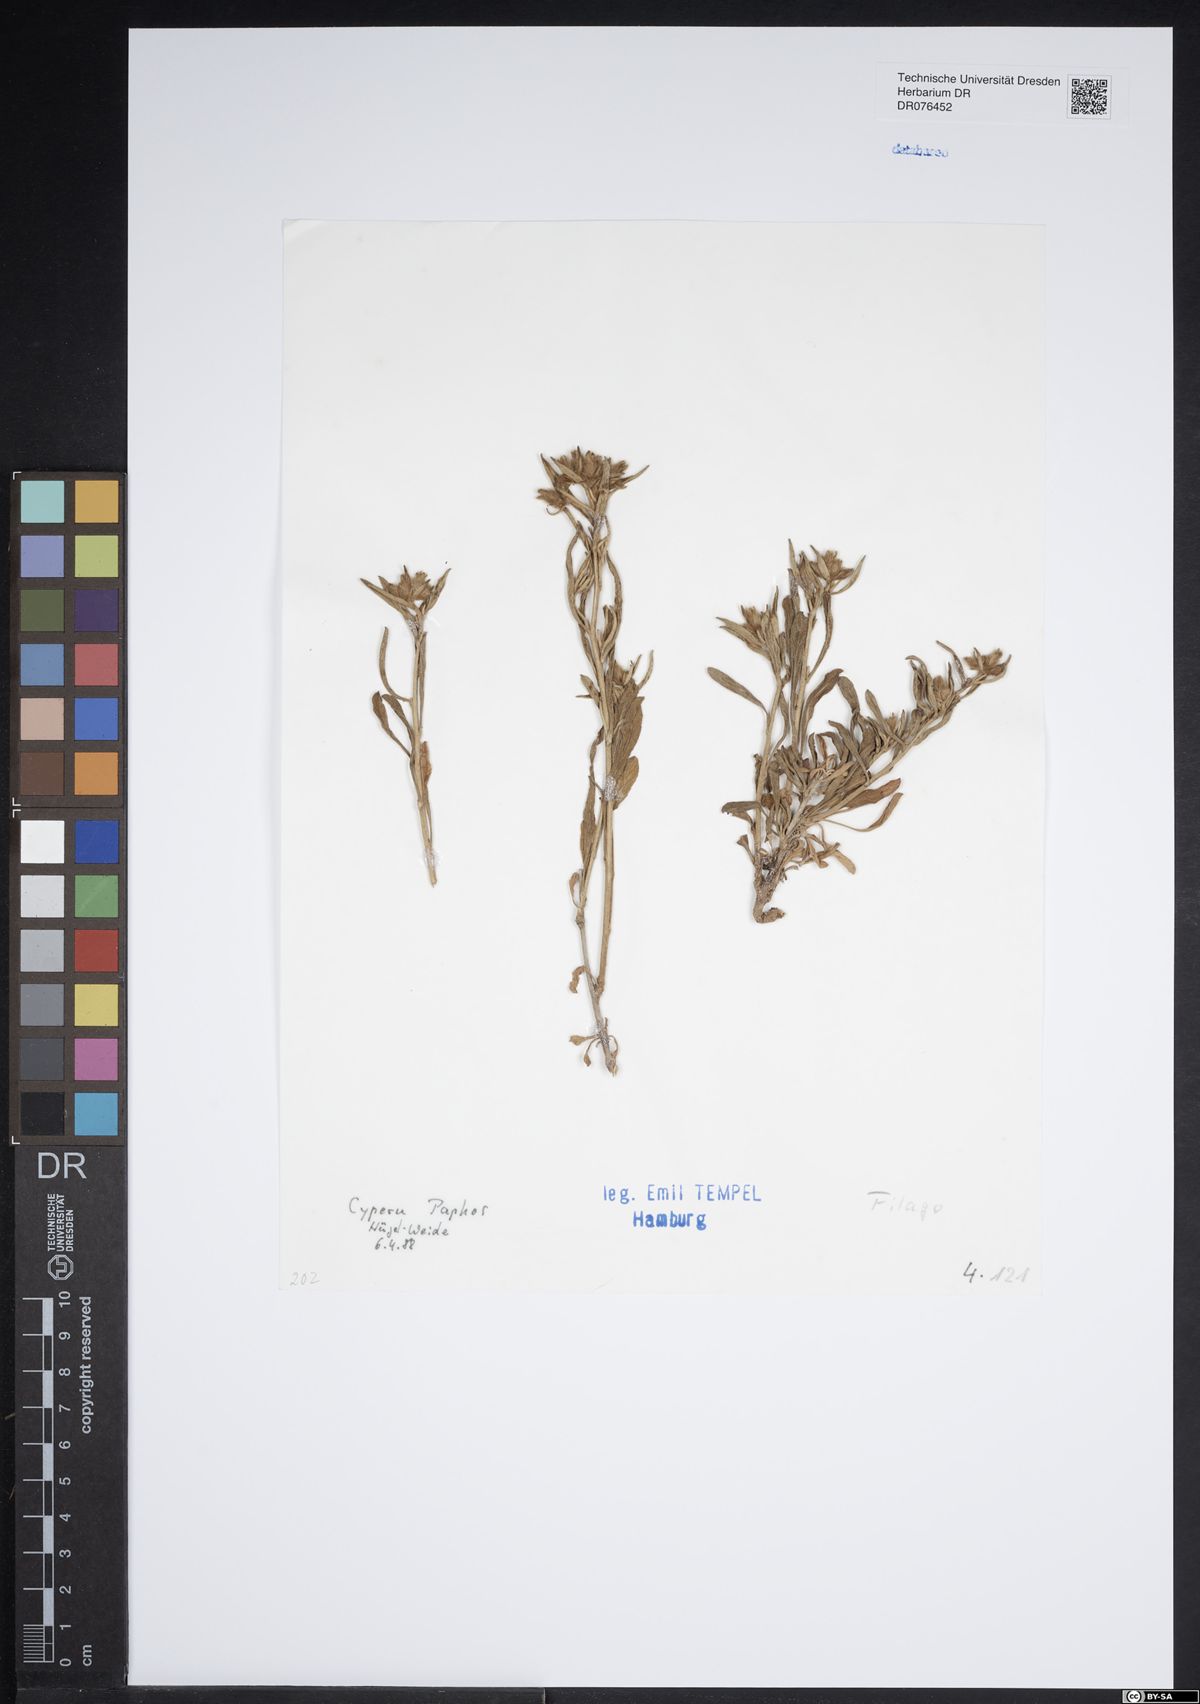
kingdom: Plantae
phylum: Tracheophyta
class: Magnoliopsida
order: Asterales
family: Asteraceae
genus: Filago
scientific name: Filago
